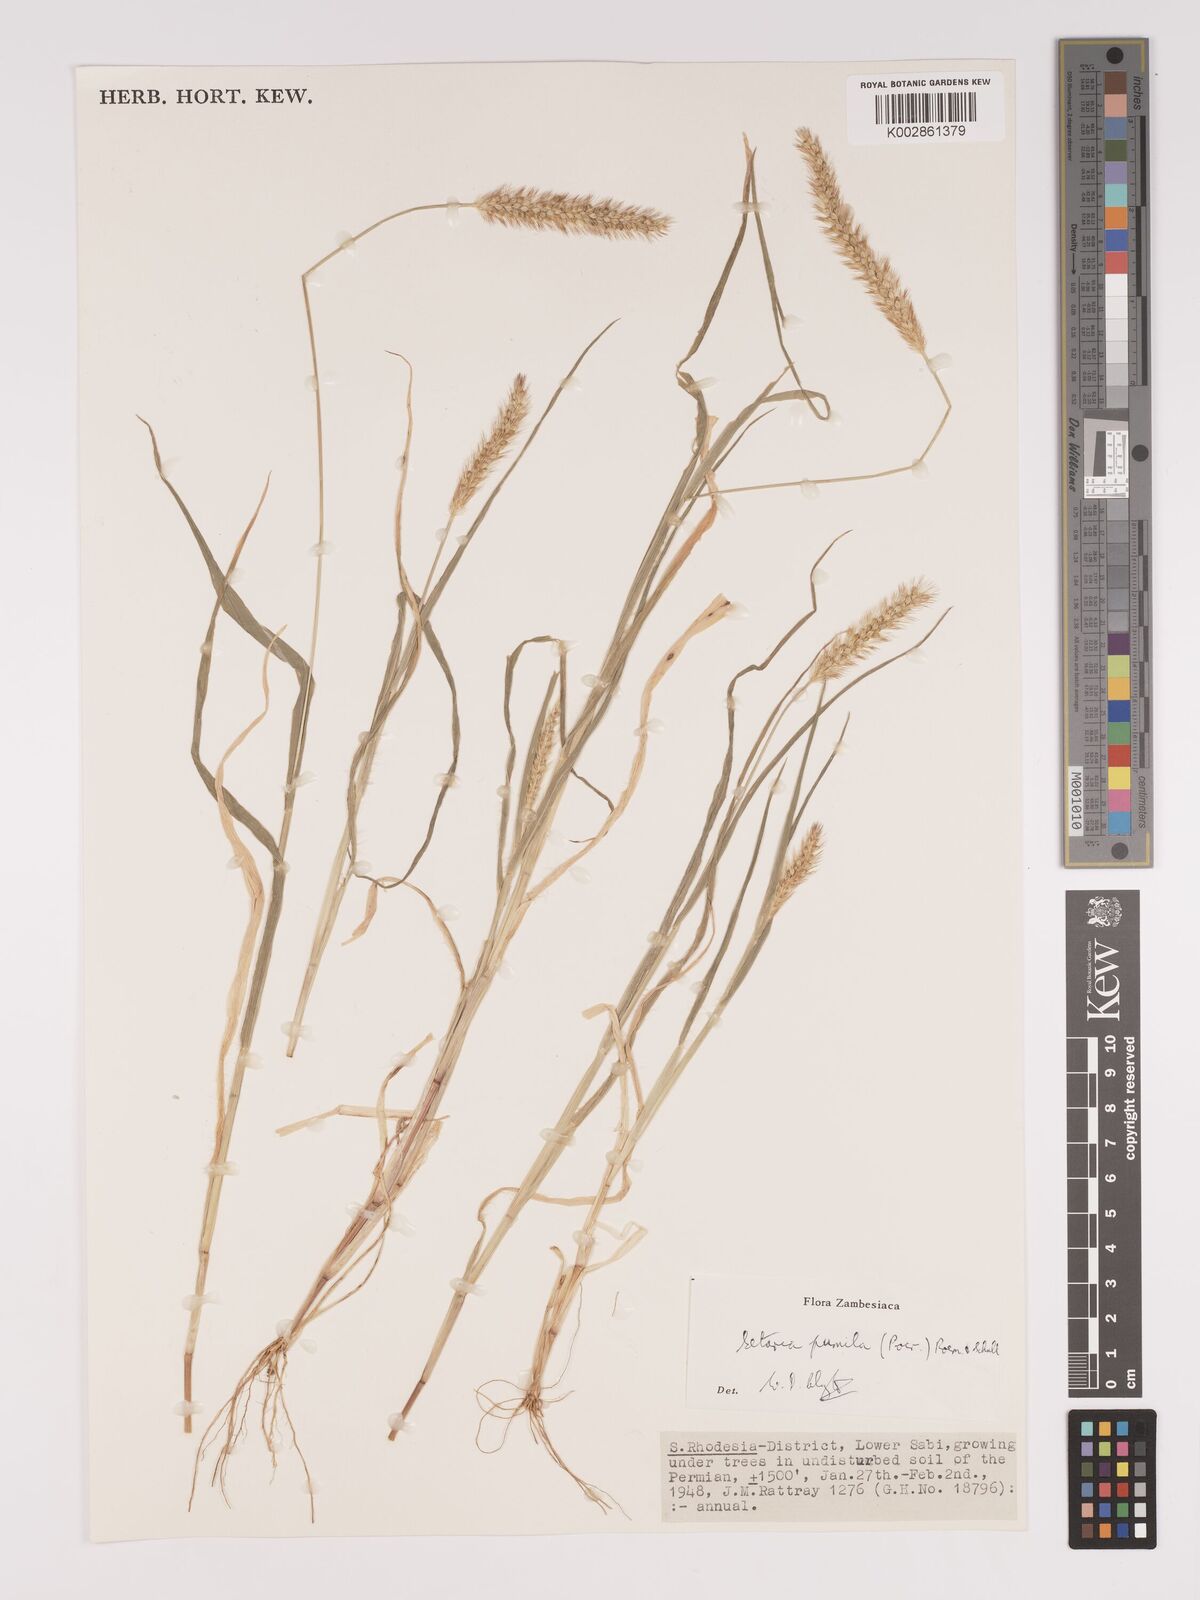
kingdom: Plantae
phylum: Tracheophyta
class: Liliopsida
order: Poales
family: Poaceae
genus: Setaria
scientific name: Setaria pumila
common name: Yellow bristle-grass
